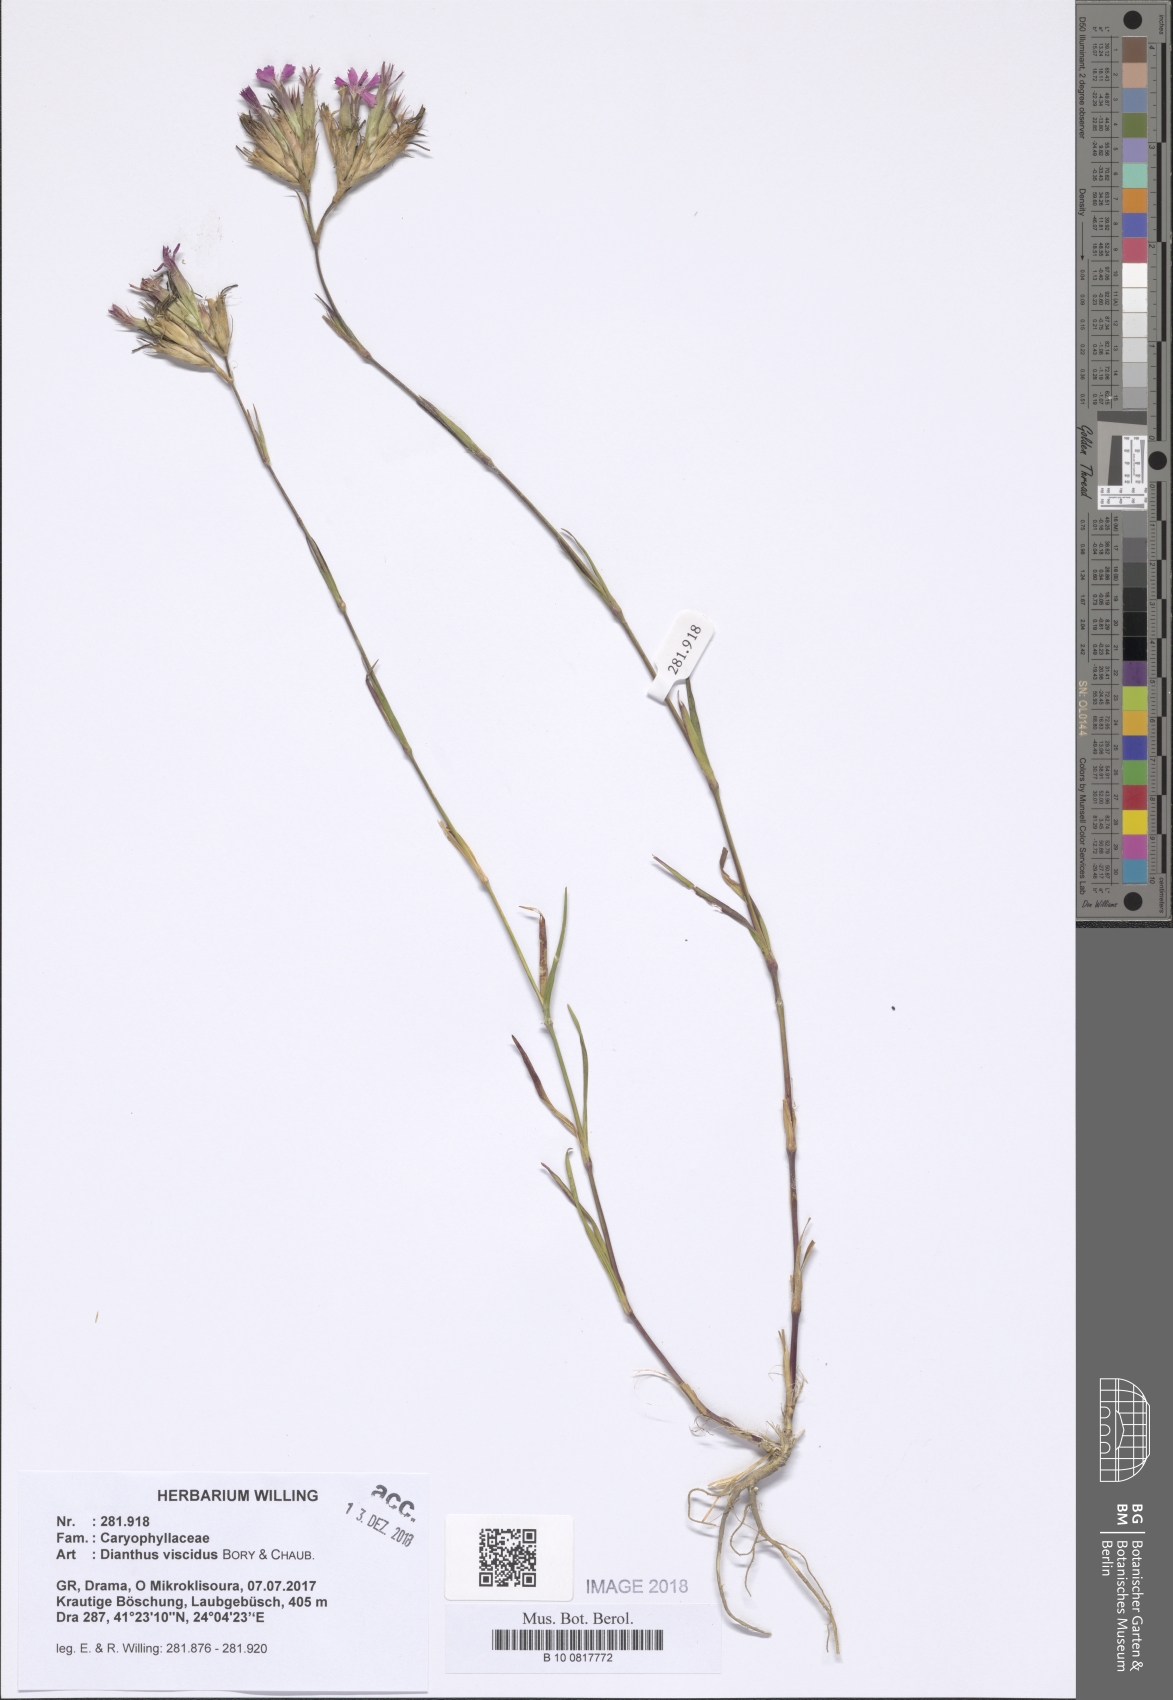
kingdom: Plantae
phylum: Tracheophyta
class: Magnoliopsida
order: Caryophyllales
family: Caryophyllaceae
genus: Dianthus
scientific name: Dianthus viscidus
